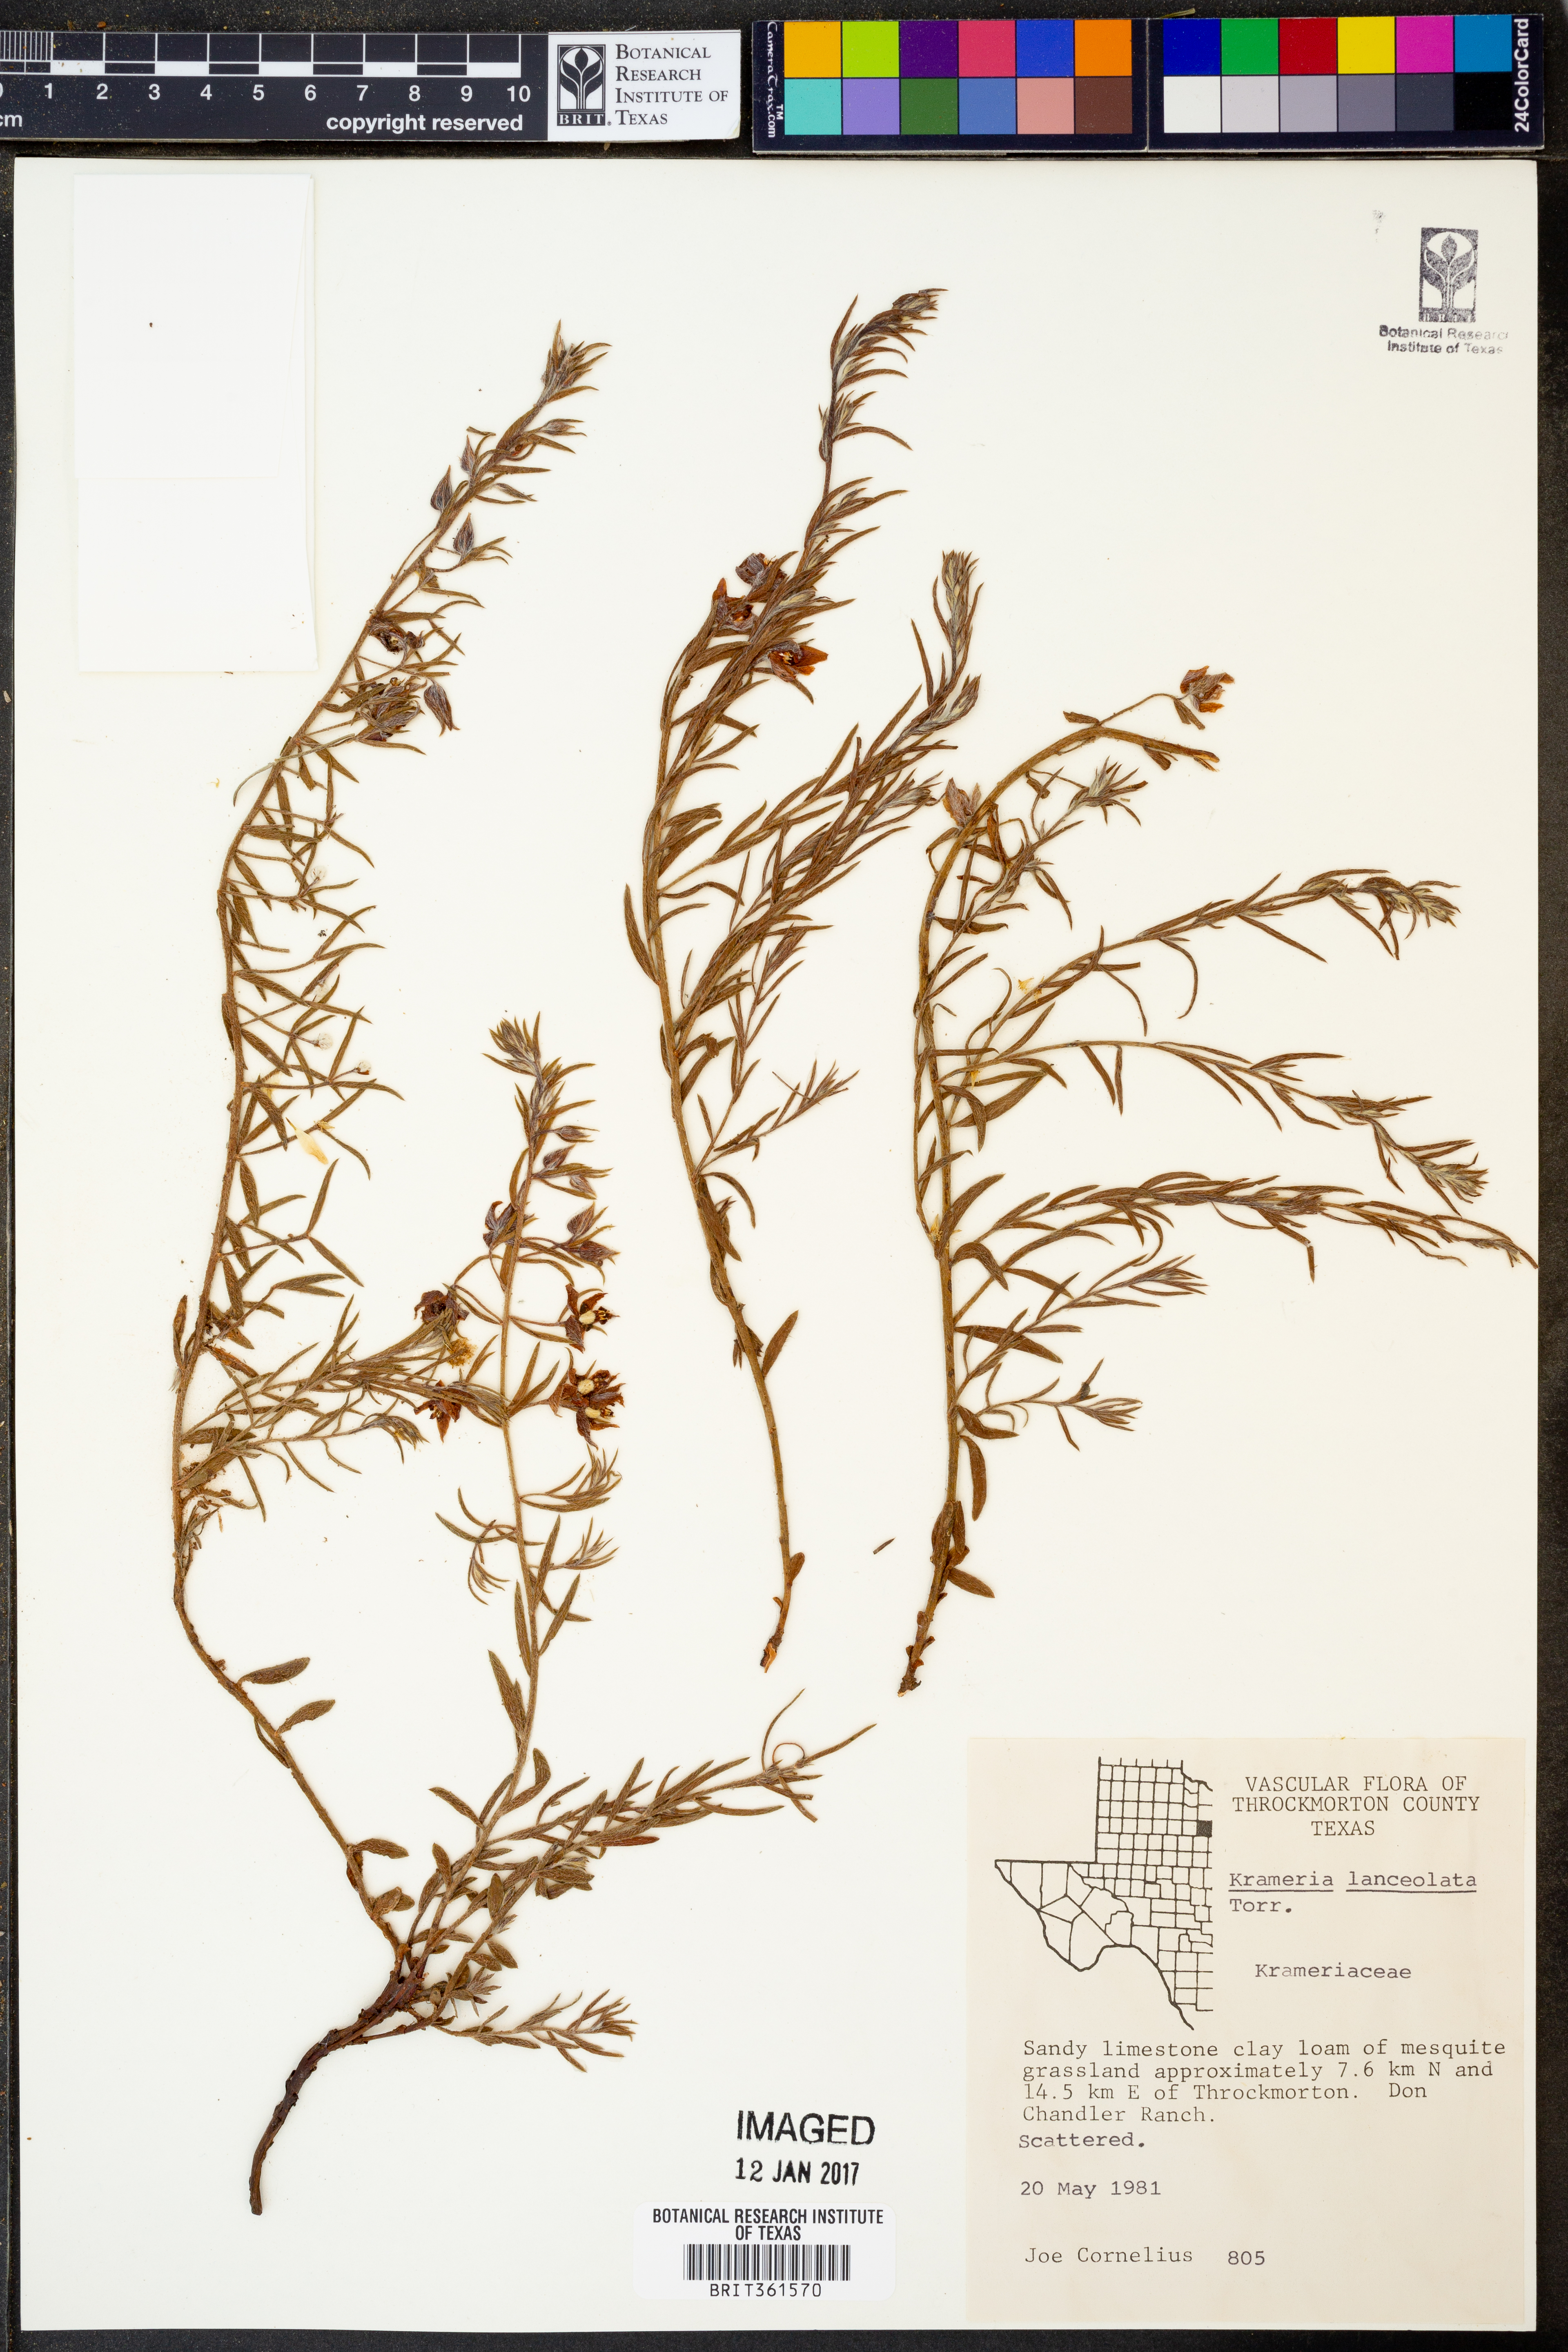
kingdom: Plantae
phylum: Tracheophyta
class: Magnoliopsida
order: Zygophyllales
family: Krameriaceae
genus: Krameria
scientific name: Krameria lanceolata
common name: Ratany
